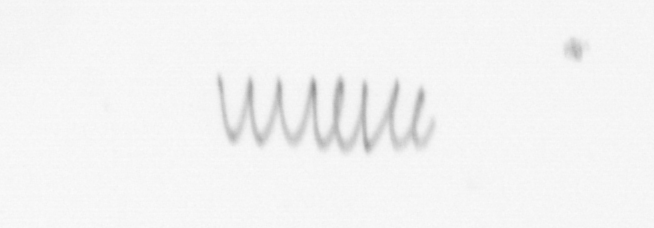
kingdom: Chromista
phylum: Ochrophyta
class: Bacillariophyceae
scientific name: Bacillariophyceae
